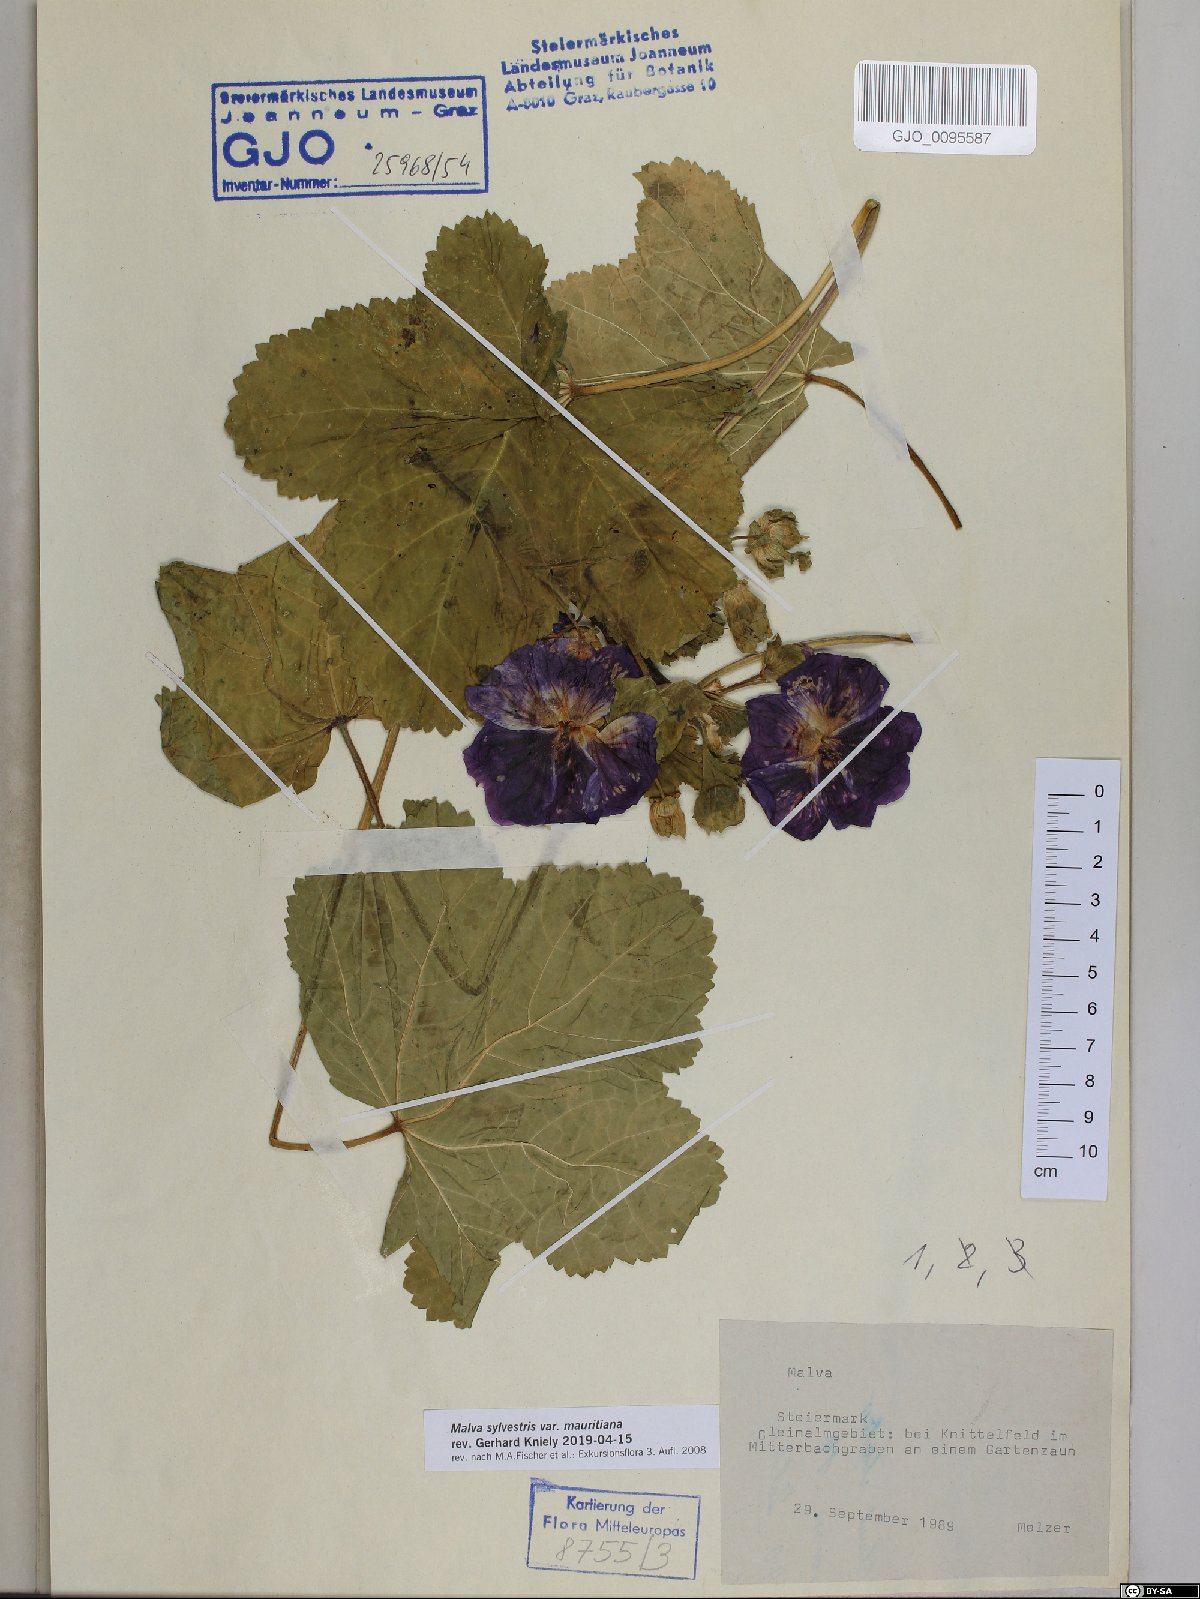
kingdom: Plantae
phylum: Tracheophyta
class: Magnoliopsida
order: Malvales
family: Malvaceae
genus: Malva
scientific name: Malva sylvestris
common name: Common mallow
